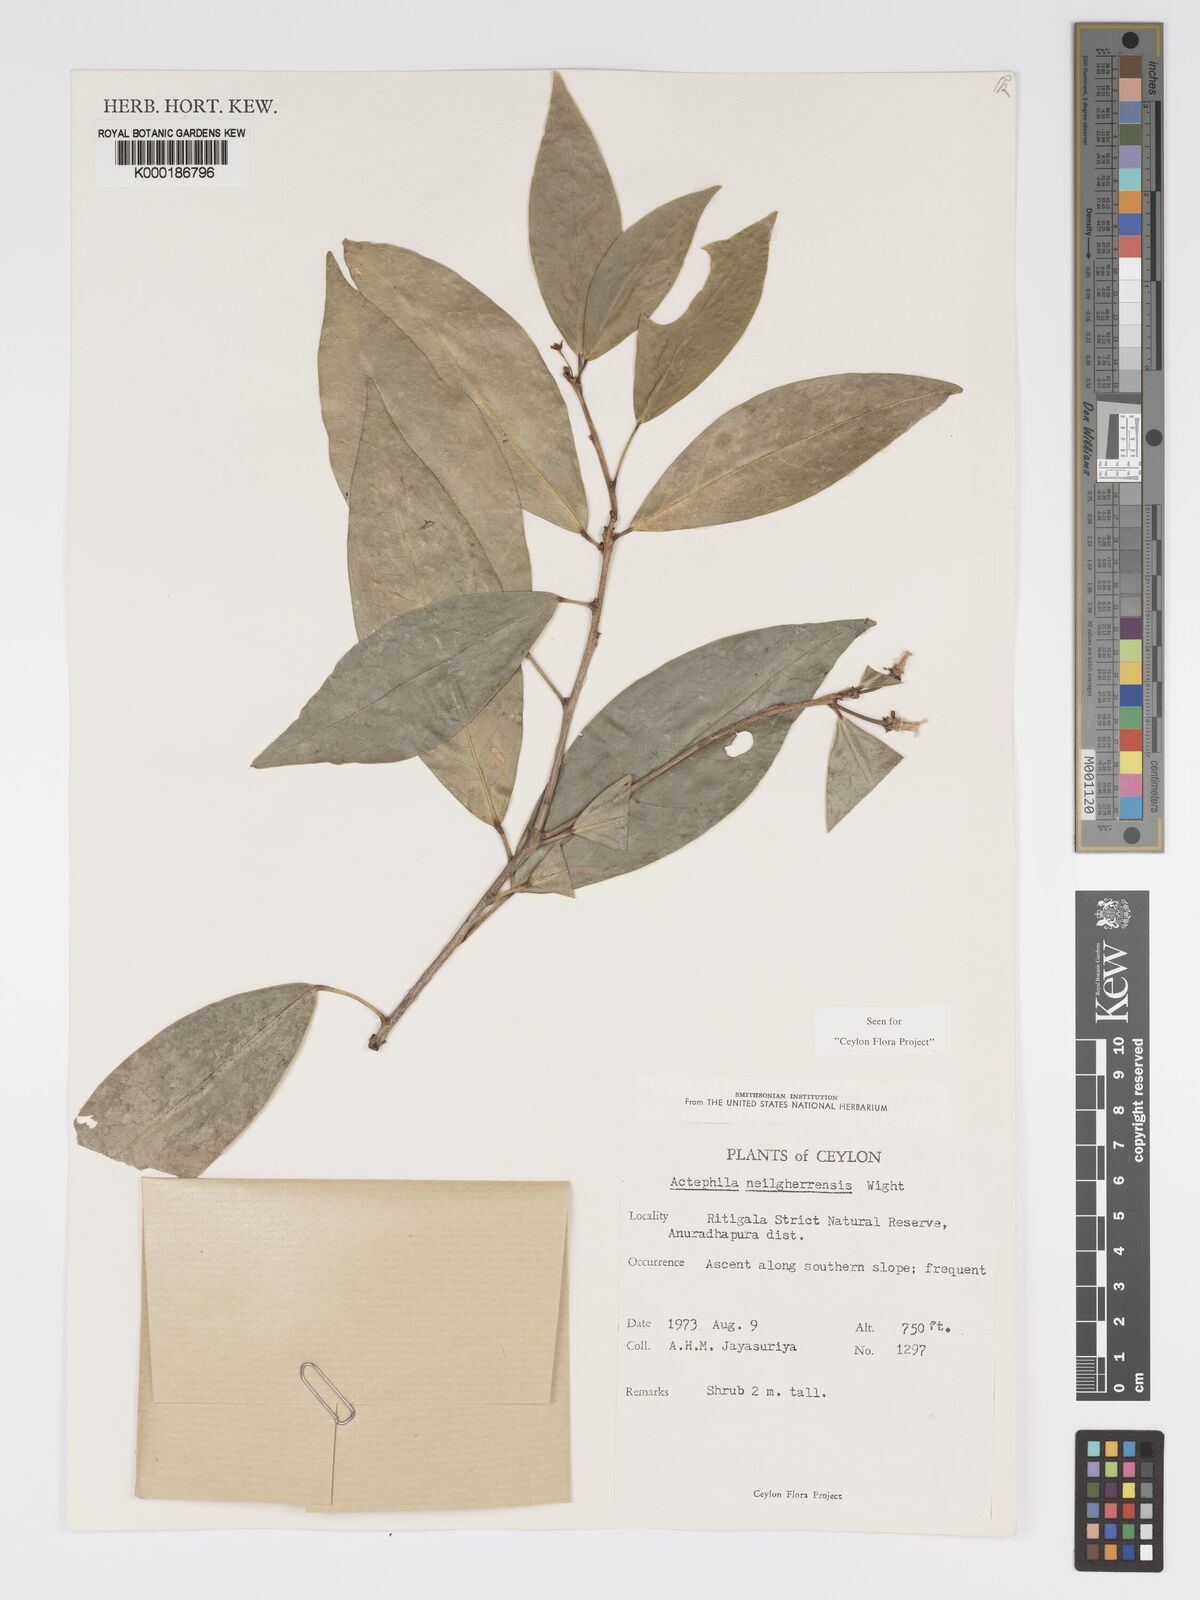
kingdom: Plantae
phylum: Tracheophyta
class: Magnoliopsida
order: Malpighiales
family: Phyllanthaceae
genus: Actephila
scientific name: Actephila excelsa
